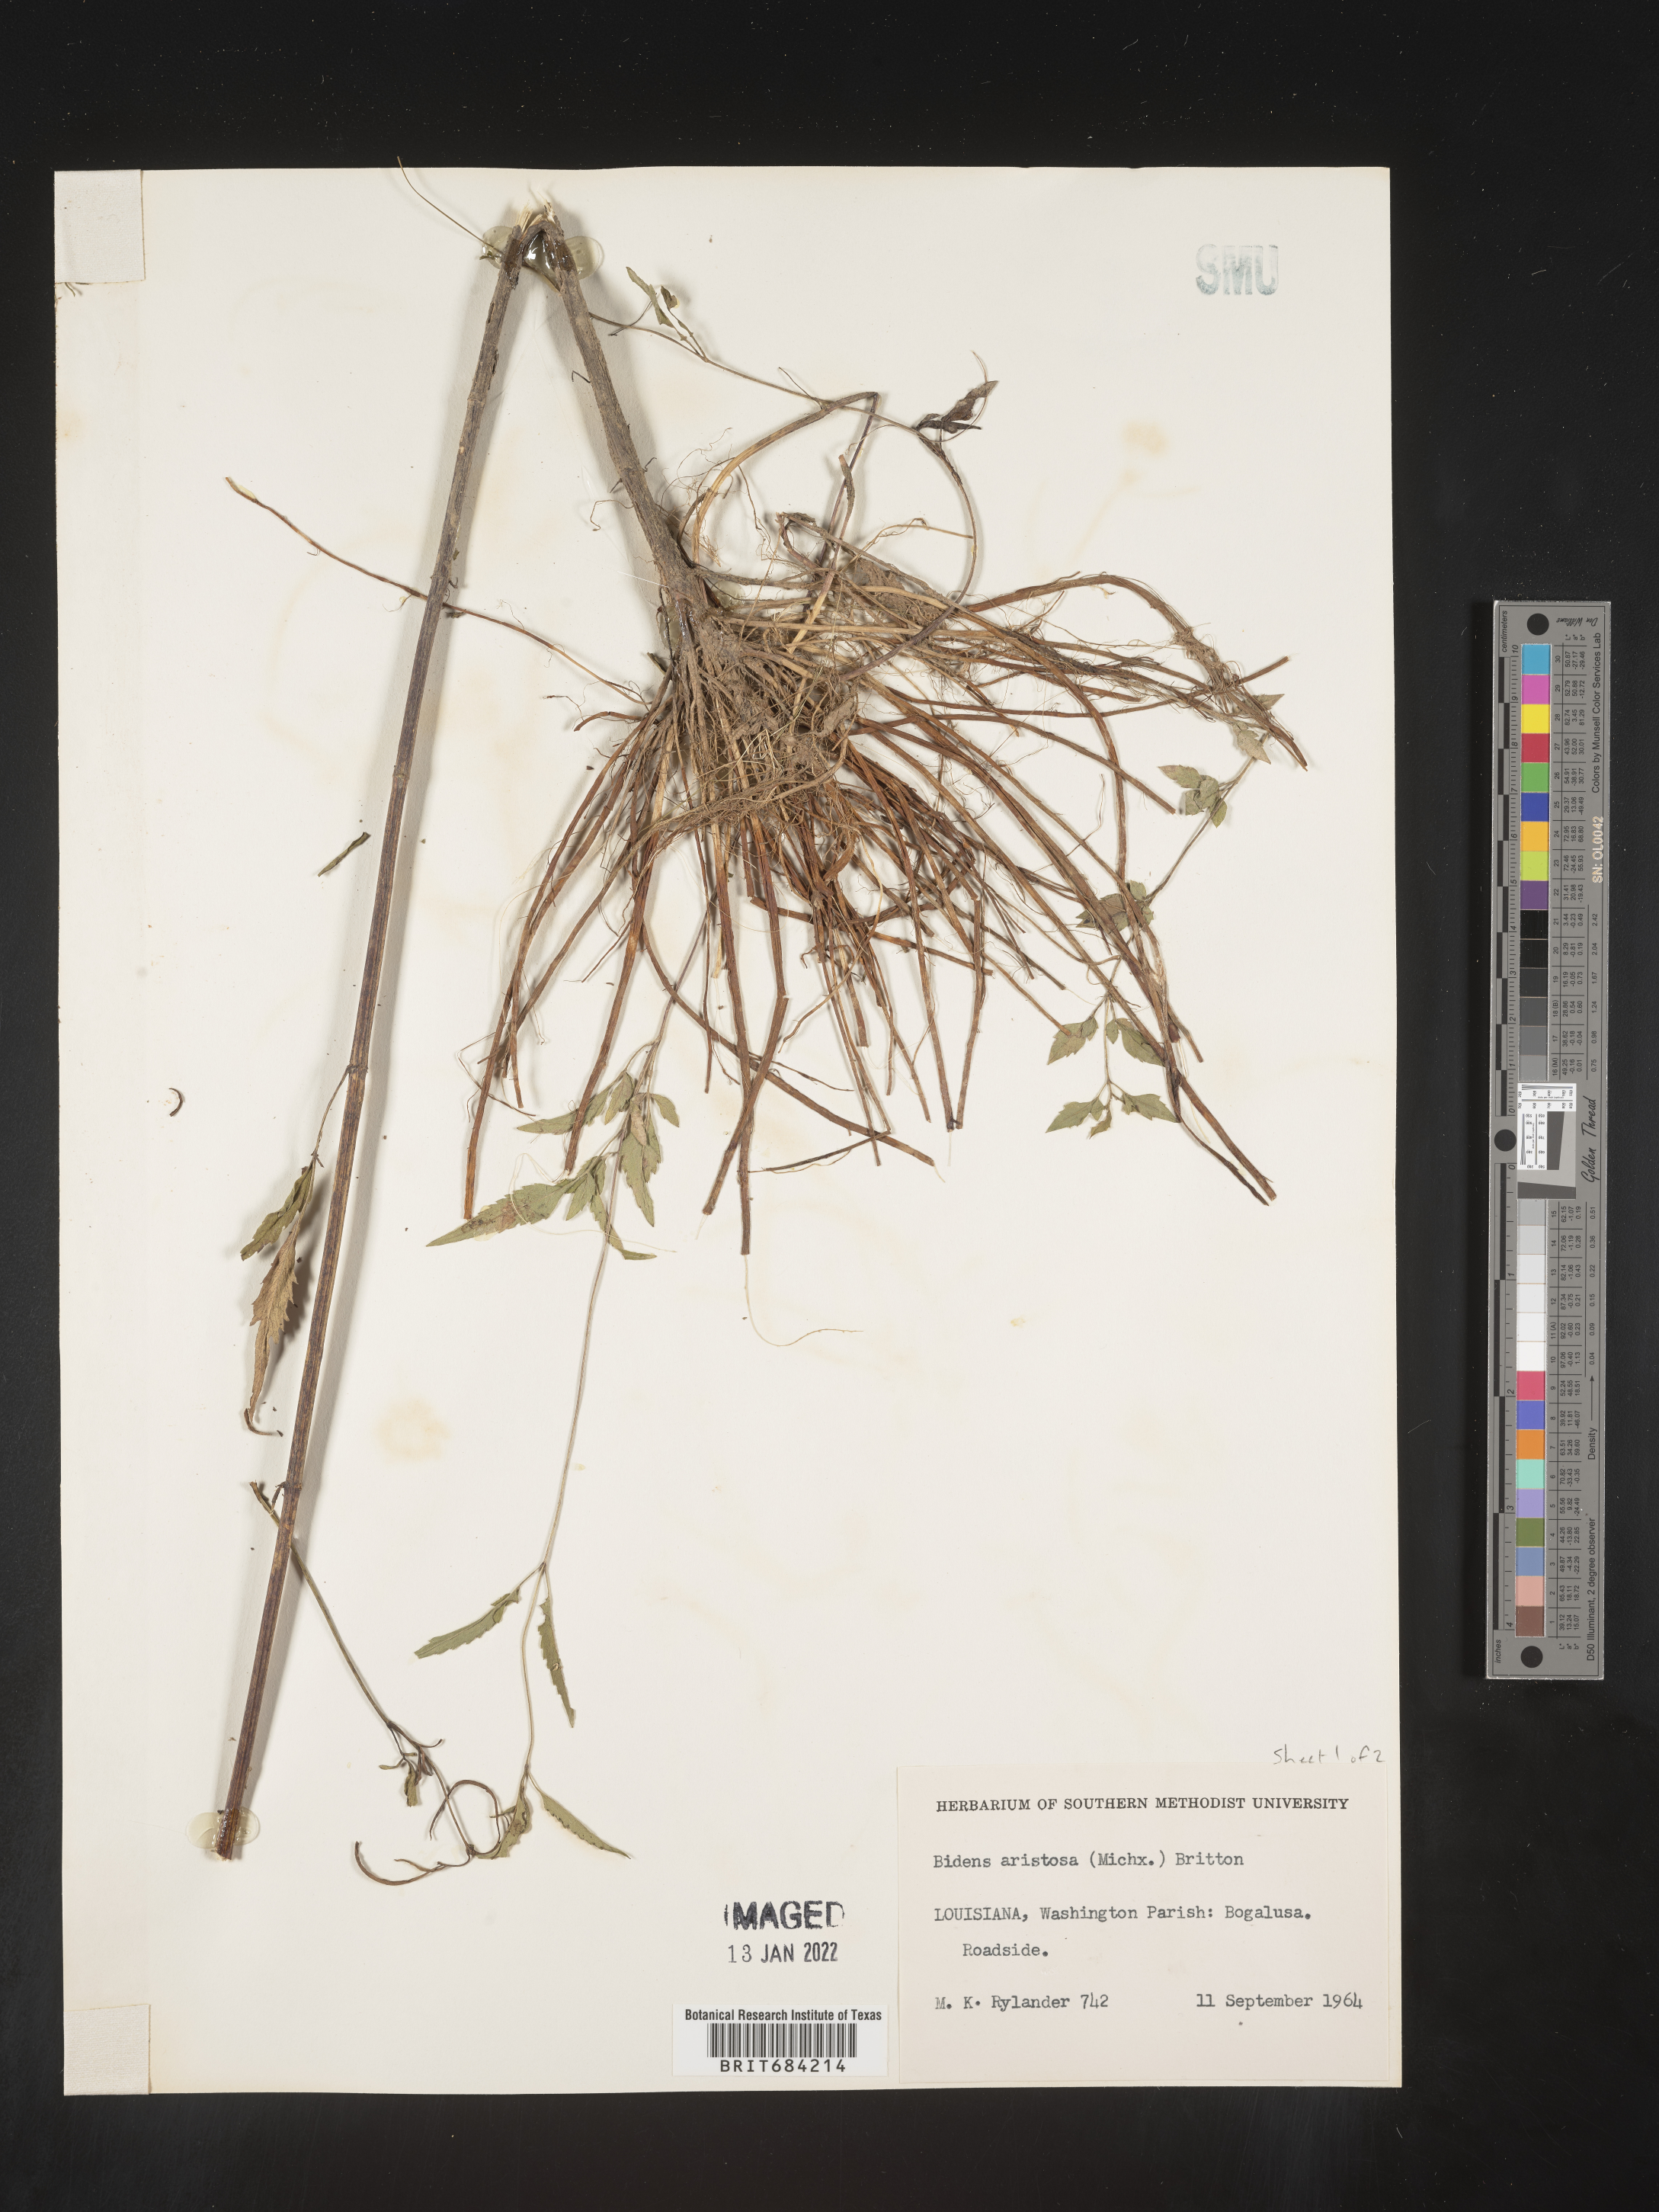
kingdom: Plantae
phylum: Tracheophyta
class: Magnoliopsida
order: Asterales
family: Asteraceae
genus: Bidens
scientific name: Bidens aristosa
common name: Western tickseed
